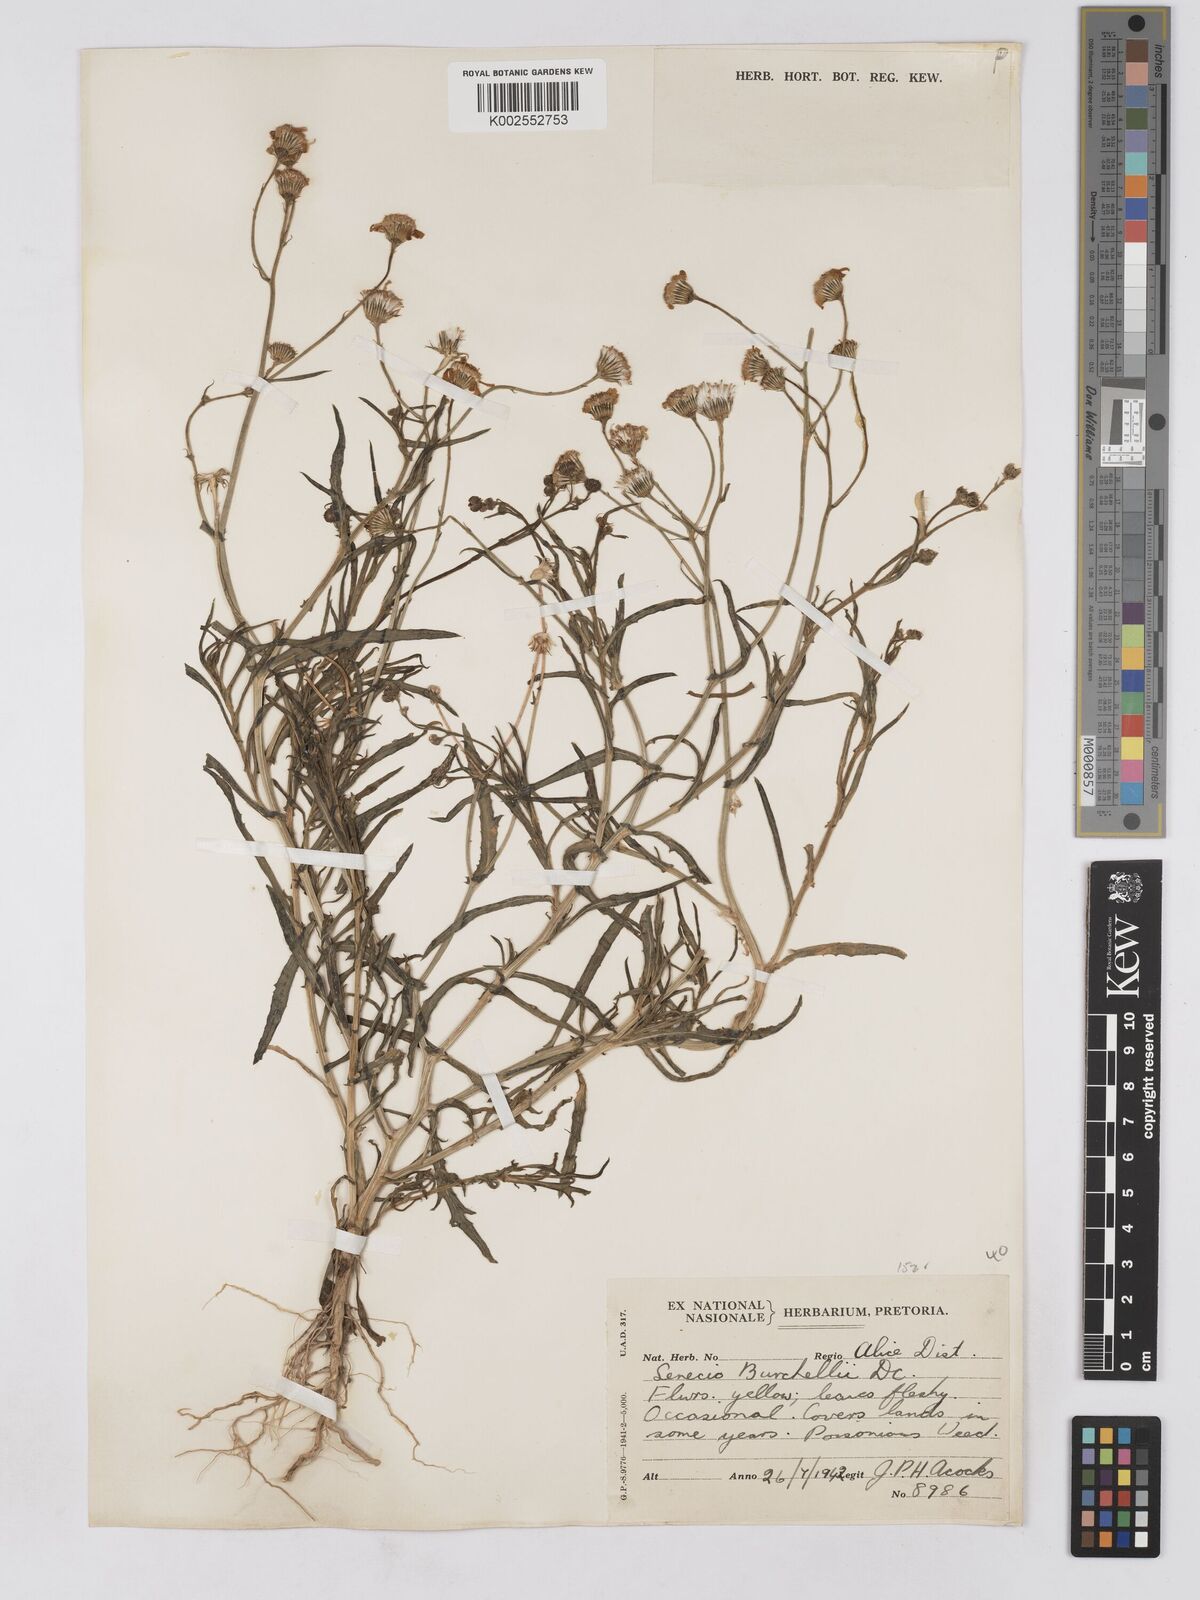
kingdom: Plantae
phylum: Tracheophyta
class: Magnoliopsida
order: Asterales
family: Asteraceae
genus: Senecio
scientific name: Senecio madagascariensis
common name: Madagascar ragwort
